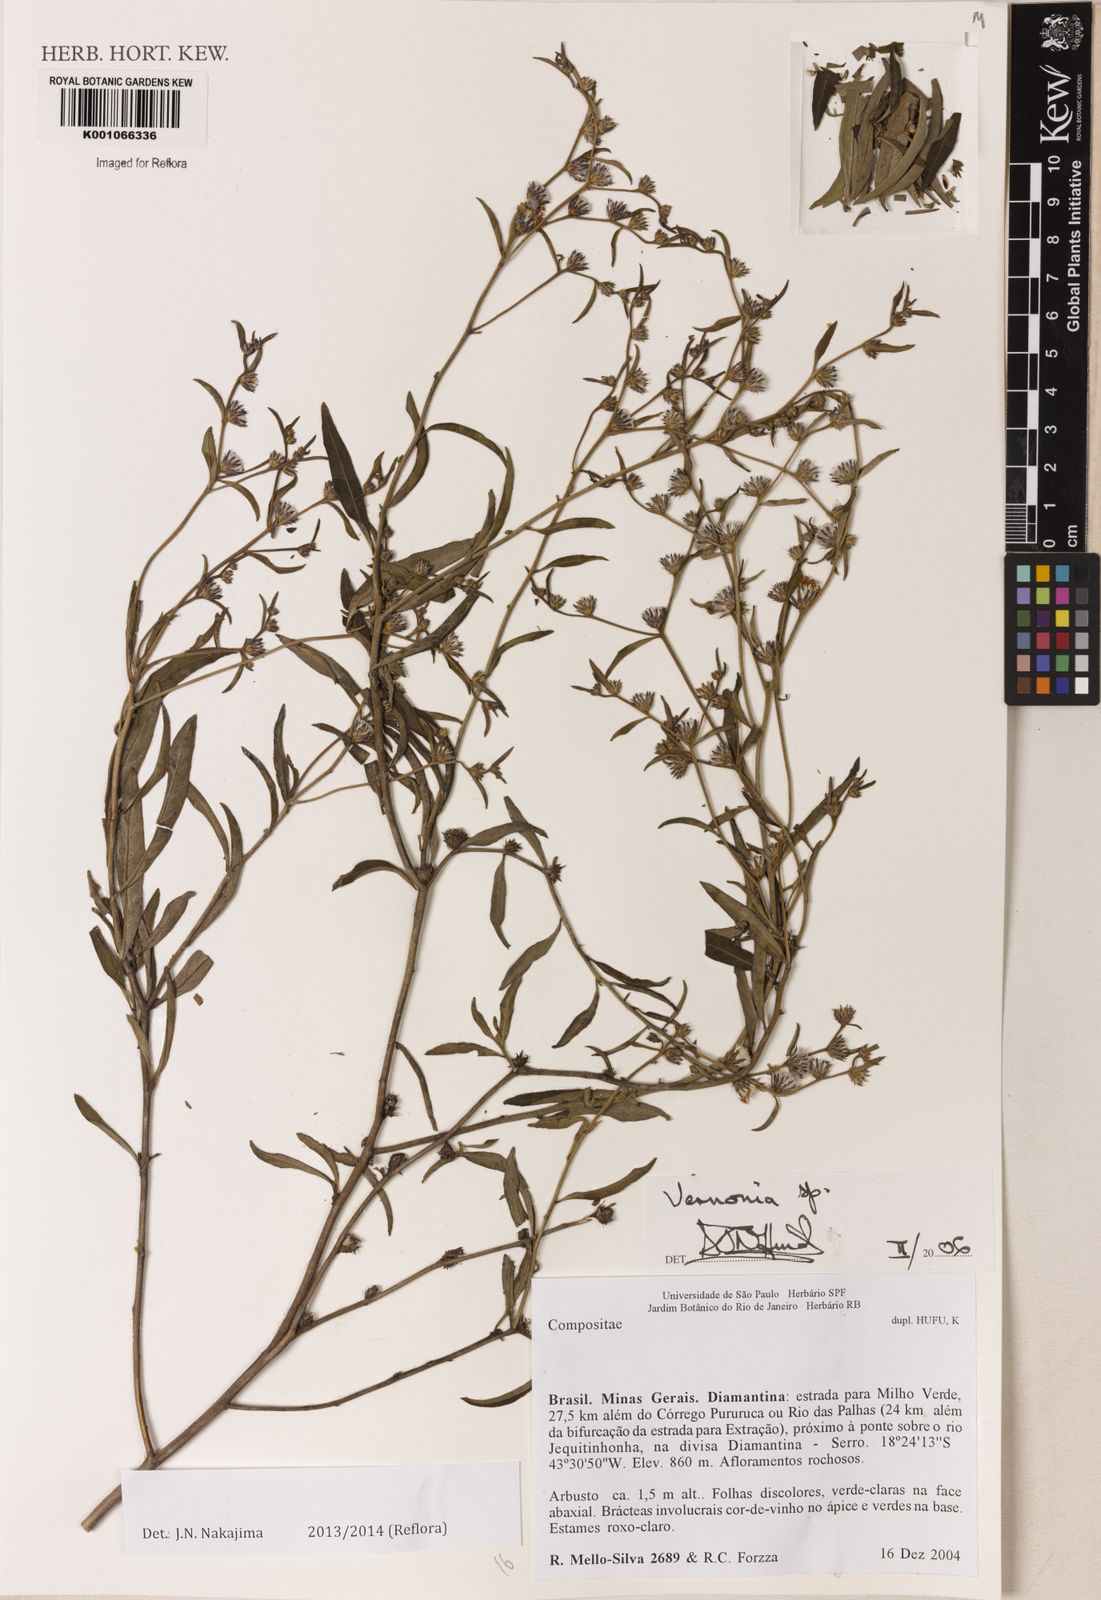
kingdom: Plantae
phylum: Tracheophyta
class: Magnoliopsida
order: Asterales
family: Asteraceae
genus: Lepidaploa
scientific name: Lepidaploa chalybaea
